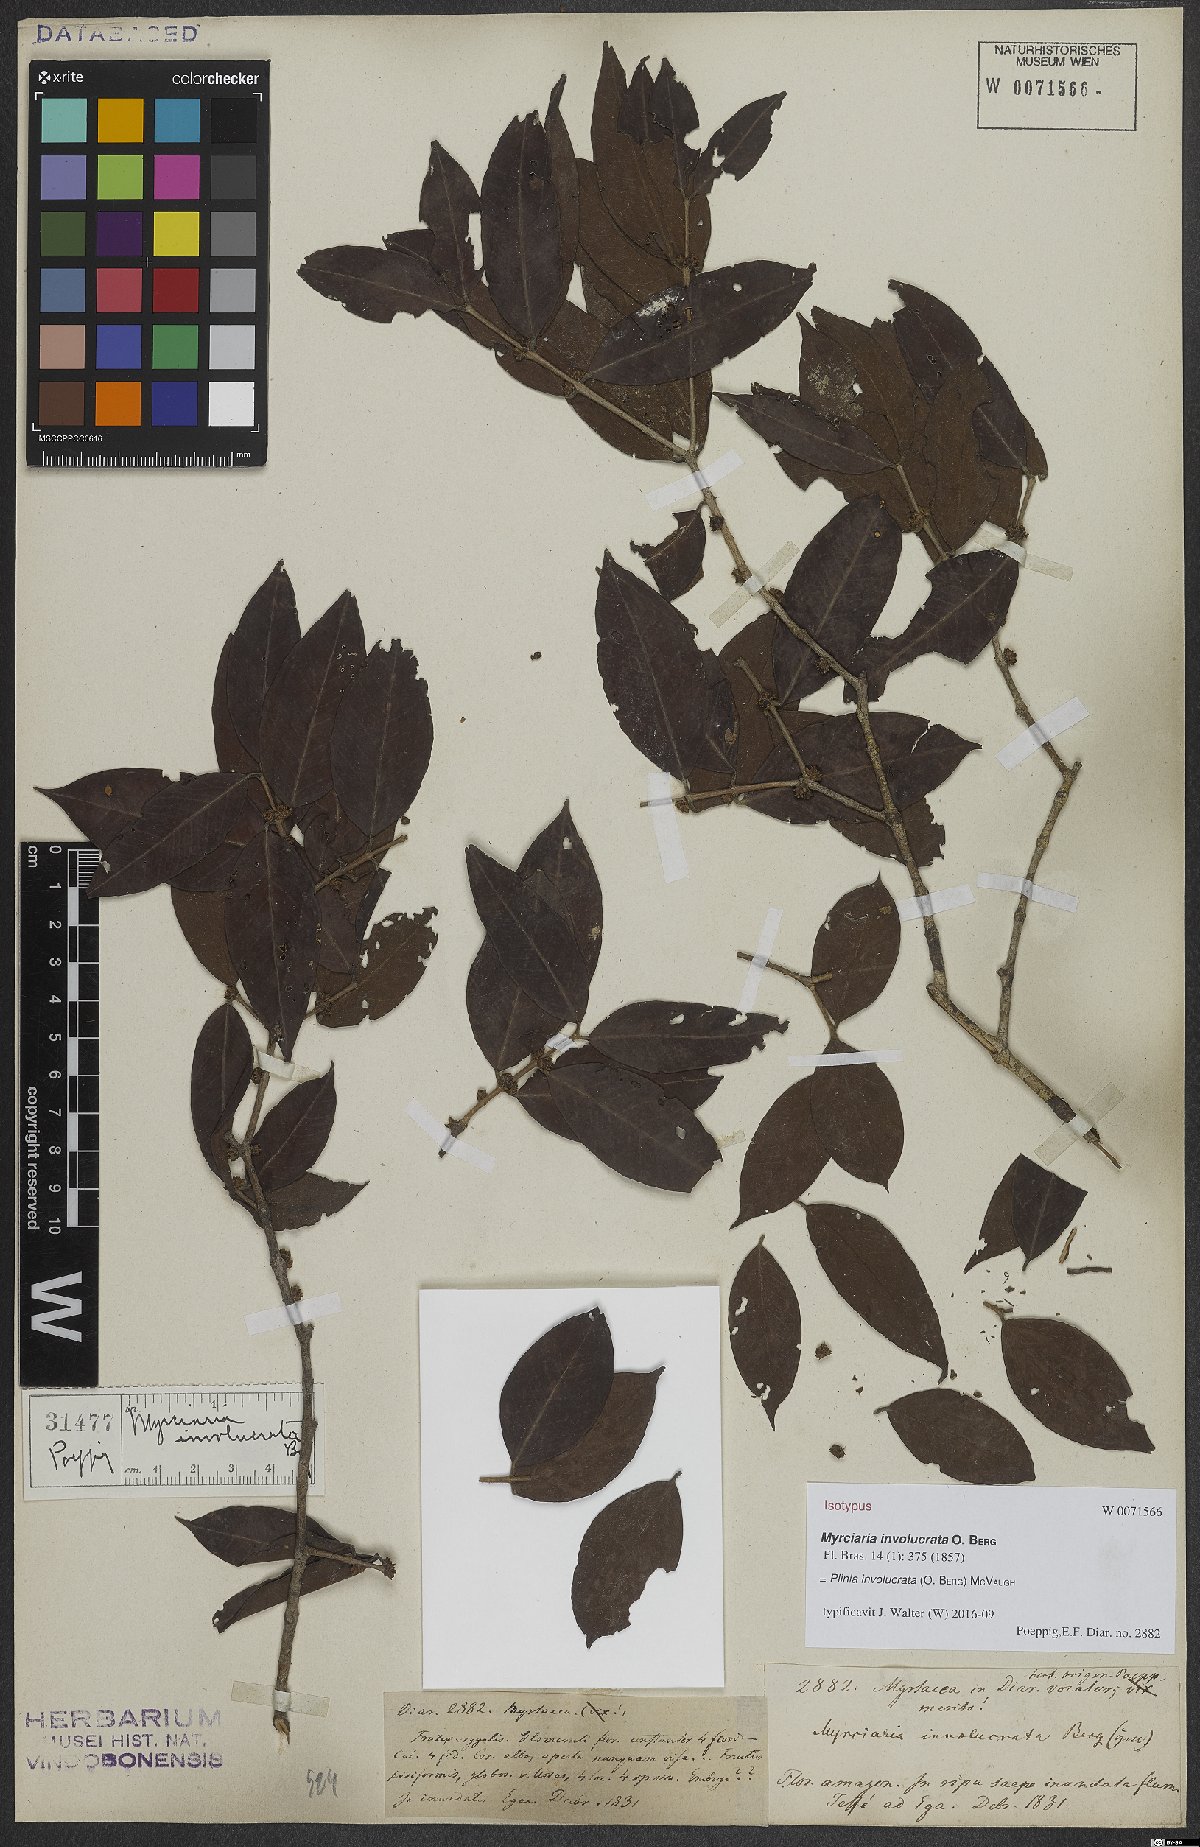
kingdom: Plantae
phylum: Tracheophyta
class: Magnoliopsida
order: Myrtales
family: Myrtaceae
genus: Plinia
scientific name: Plinia involucrata
